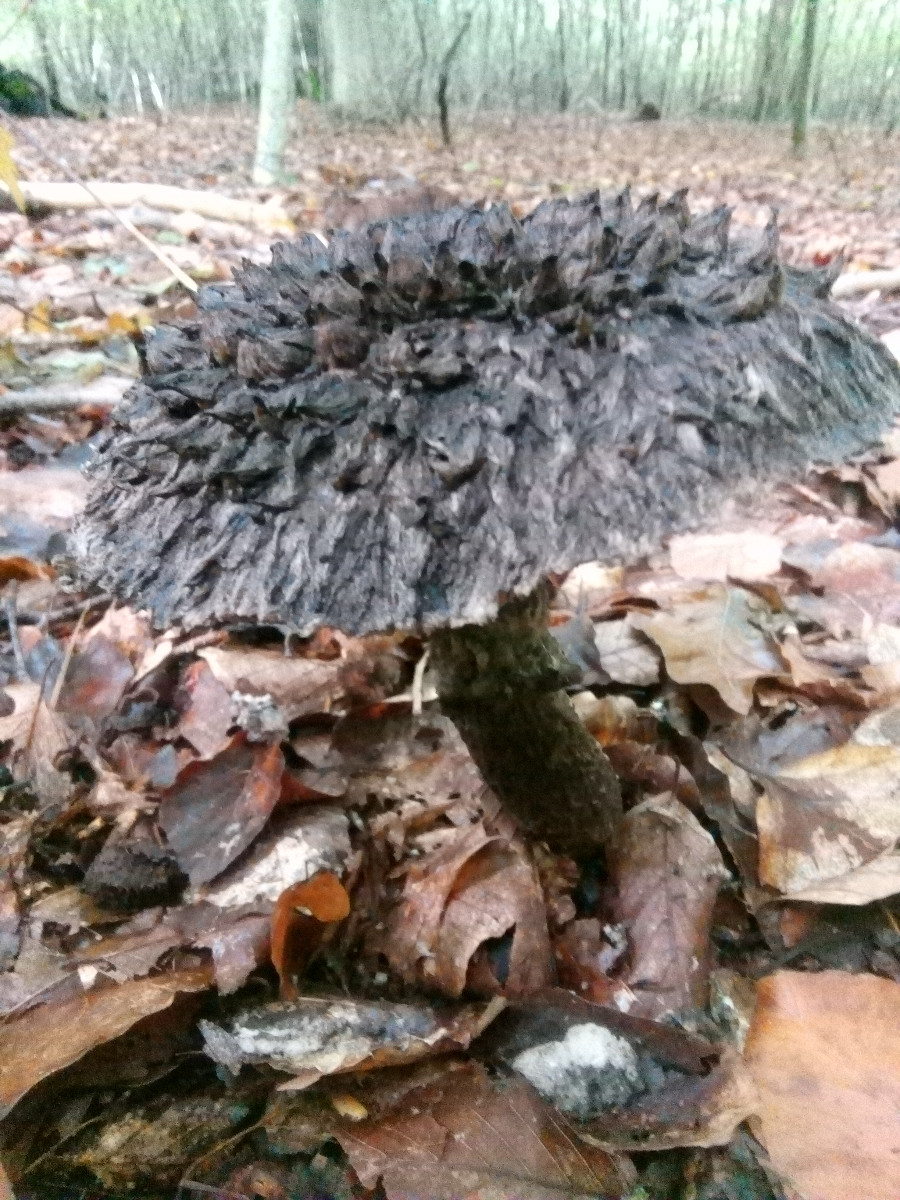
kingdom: Fungi
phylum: Basidiomycota
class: Agaricomycetes
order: Boletales
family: Boletaceae
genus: Strobilomyces
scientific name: Strobilomyces strobilaceus
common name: koglerørhat
